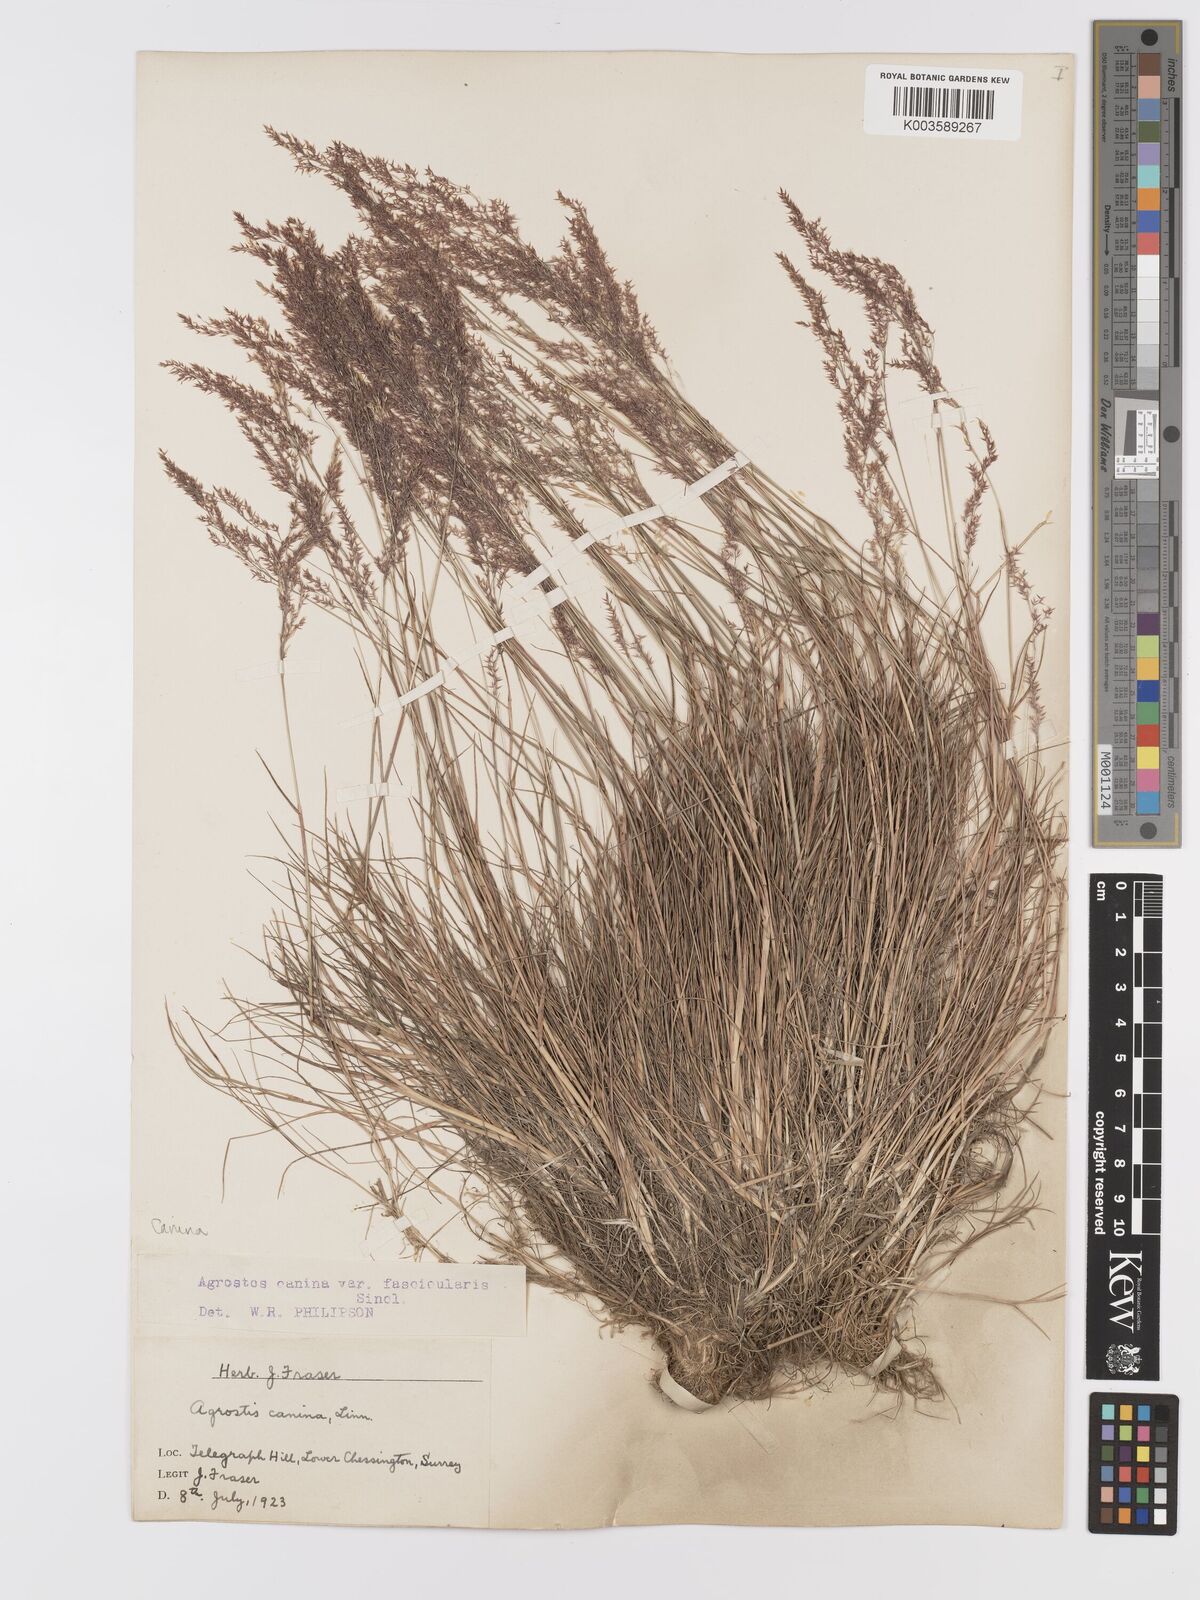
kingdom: Plantae
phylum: Tracheophyta
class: Liliopsida
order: Poales
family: Poaceae
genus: Agrostis
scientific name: Agrostis canina
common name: Velvet bent
